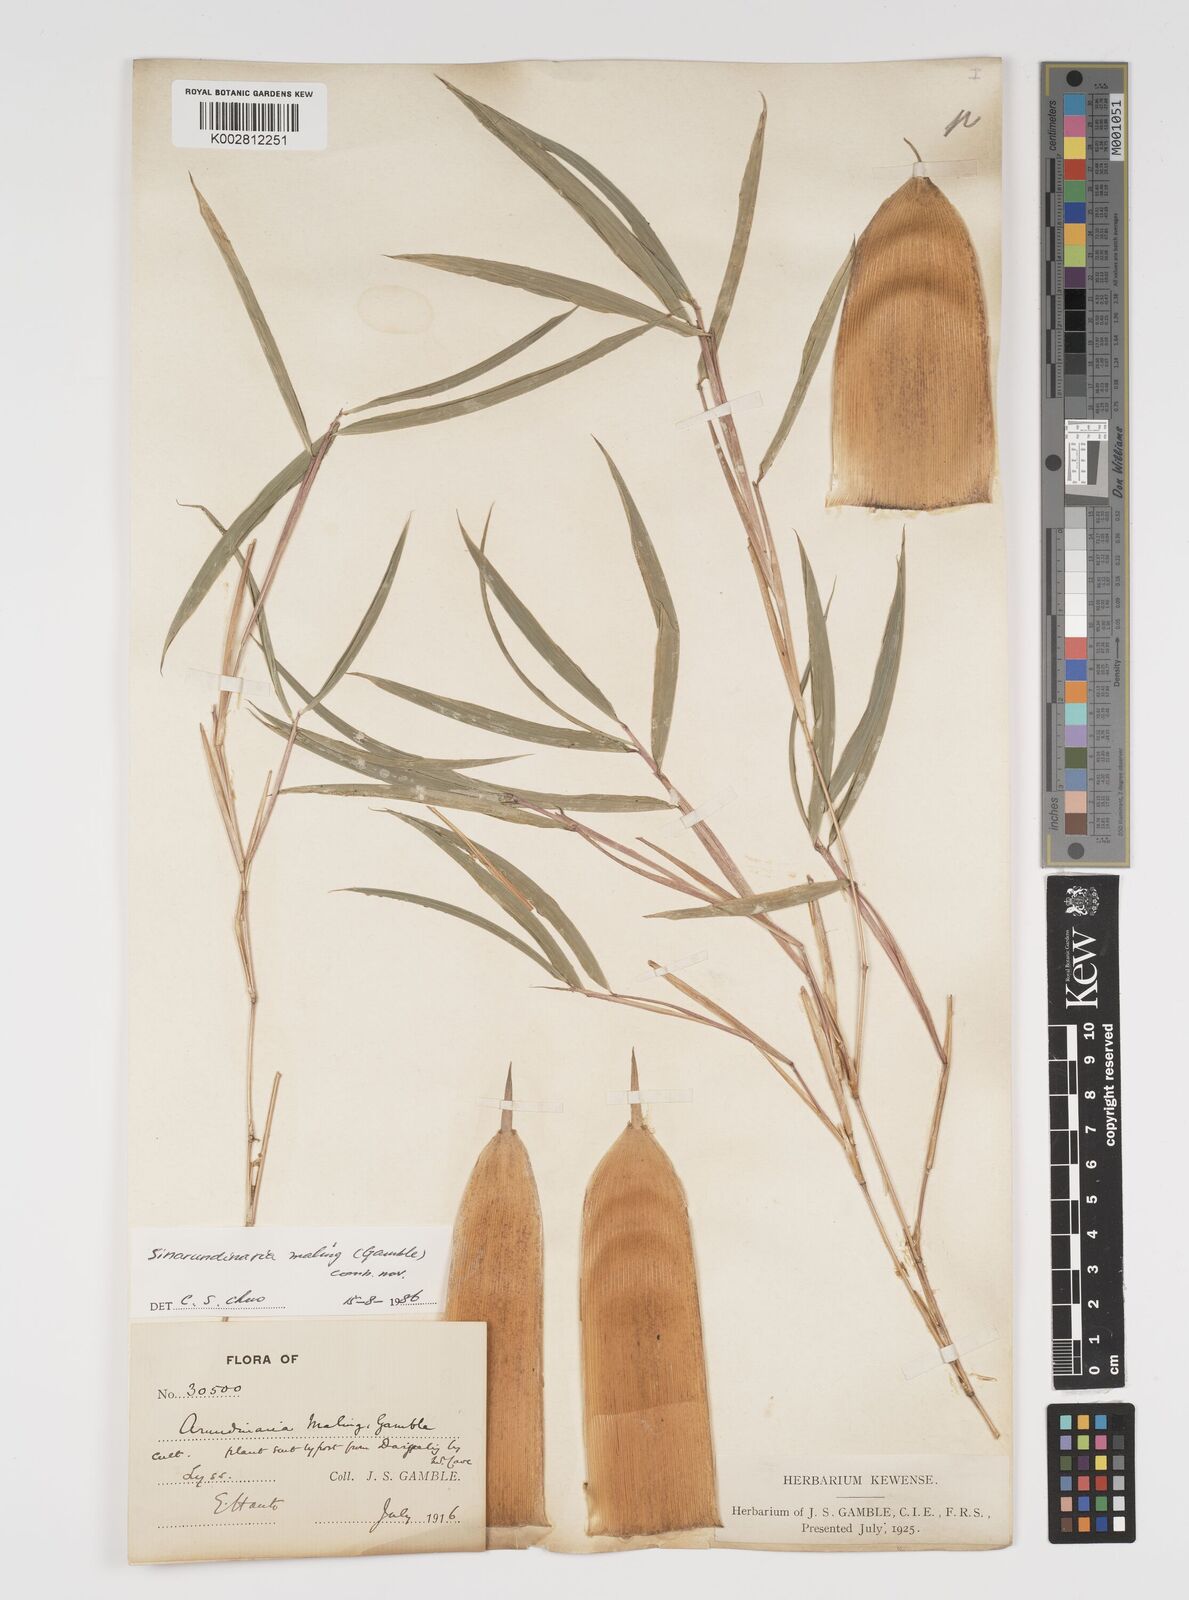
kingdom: Plantae
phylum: Tracheophyta
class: Liliopsida
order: Poales
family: Poaceae
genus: Yushania
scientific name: Yushania maling
